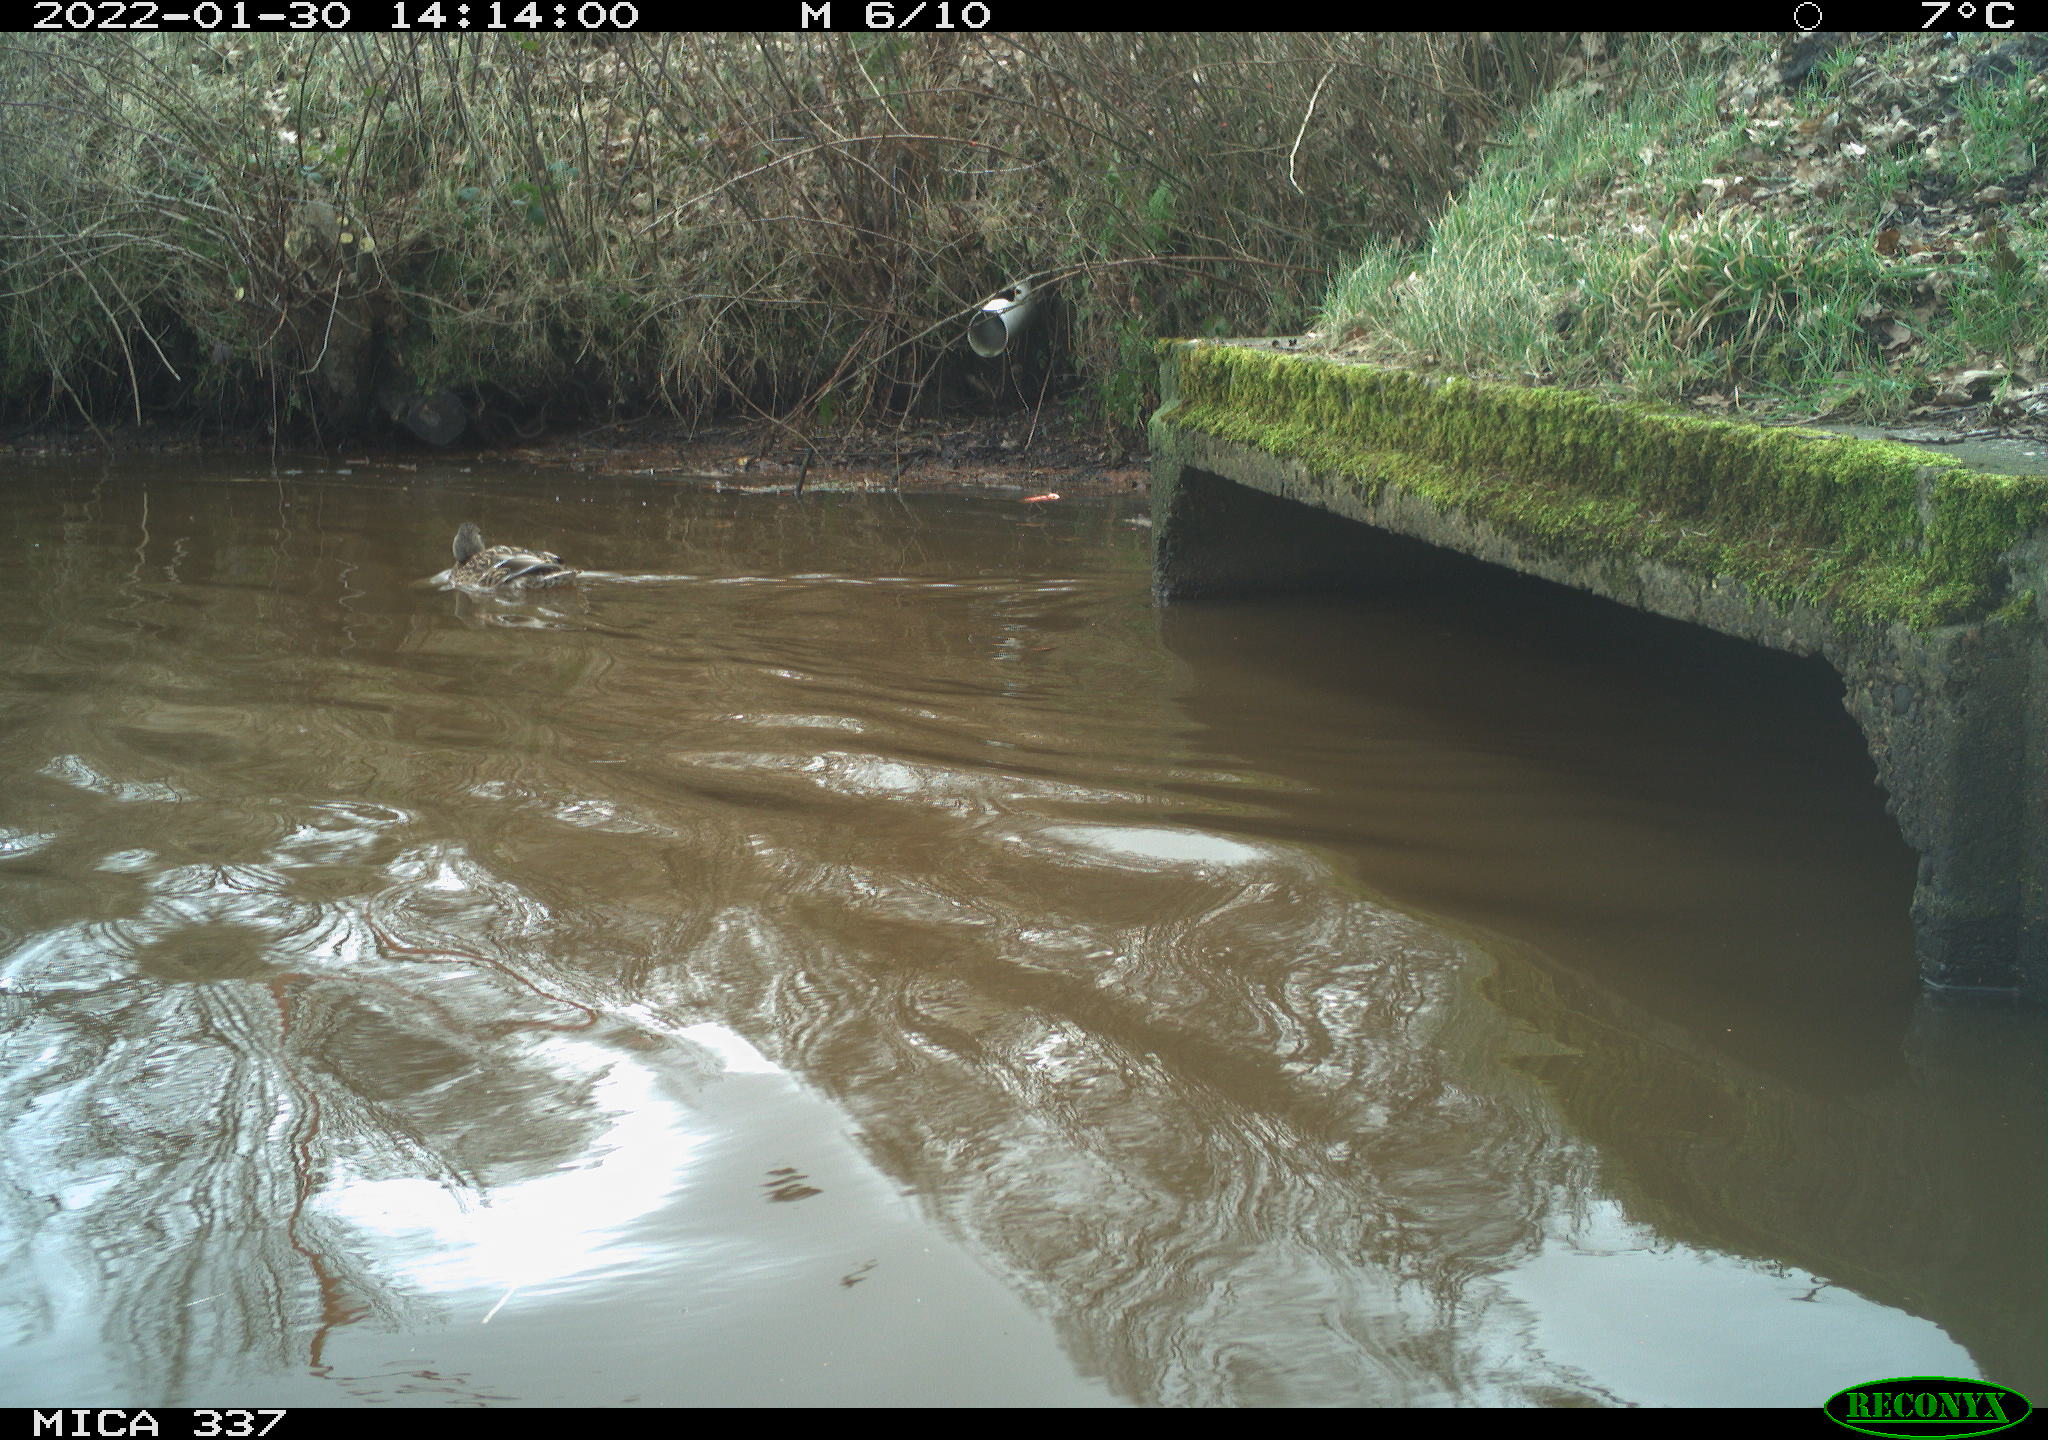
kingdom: Animalia
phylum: Chordata
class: Aves
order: Anseriformes
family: Anatidae
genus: Anas
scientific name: Anas platyrhynchos
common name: Mallard
